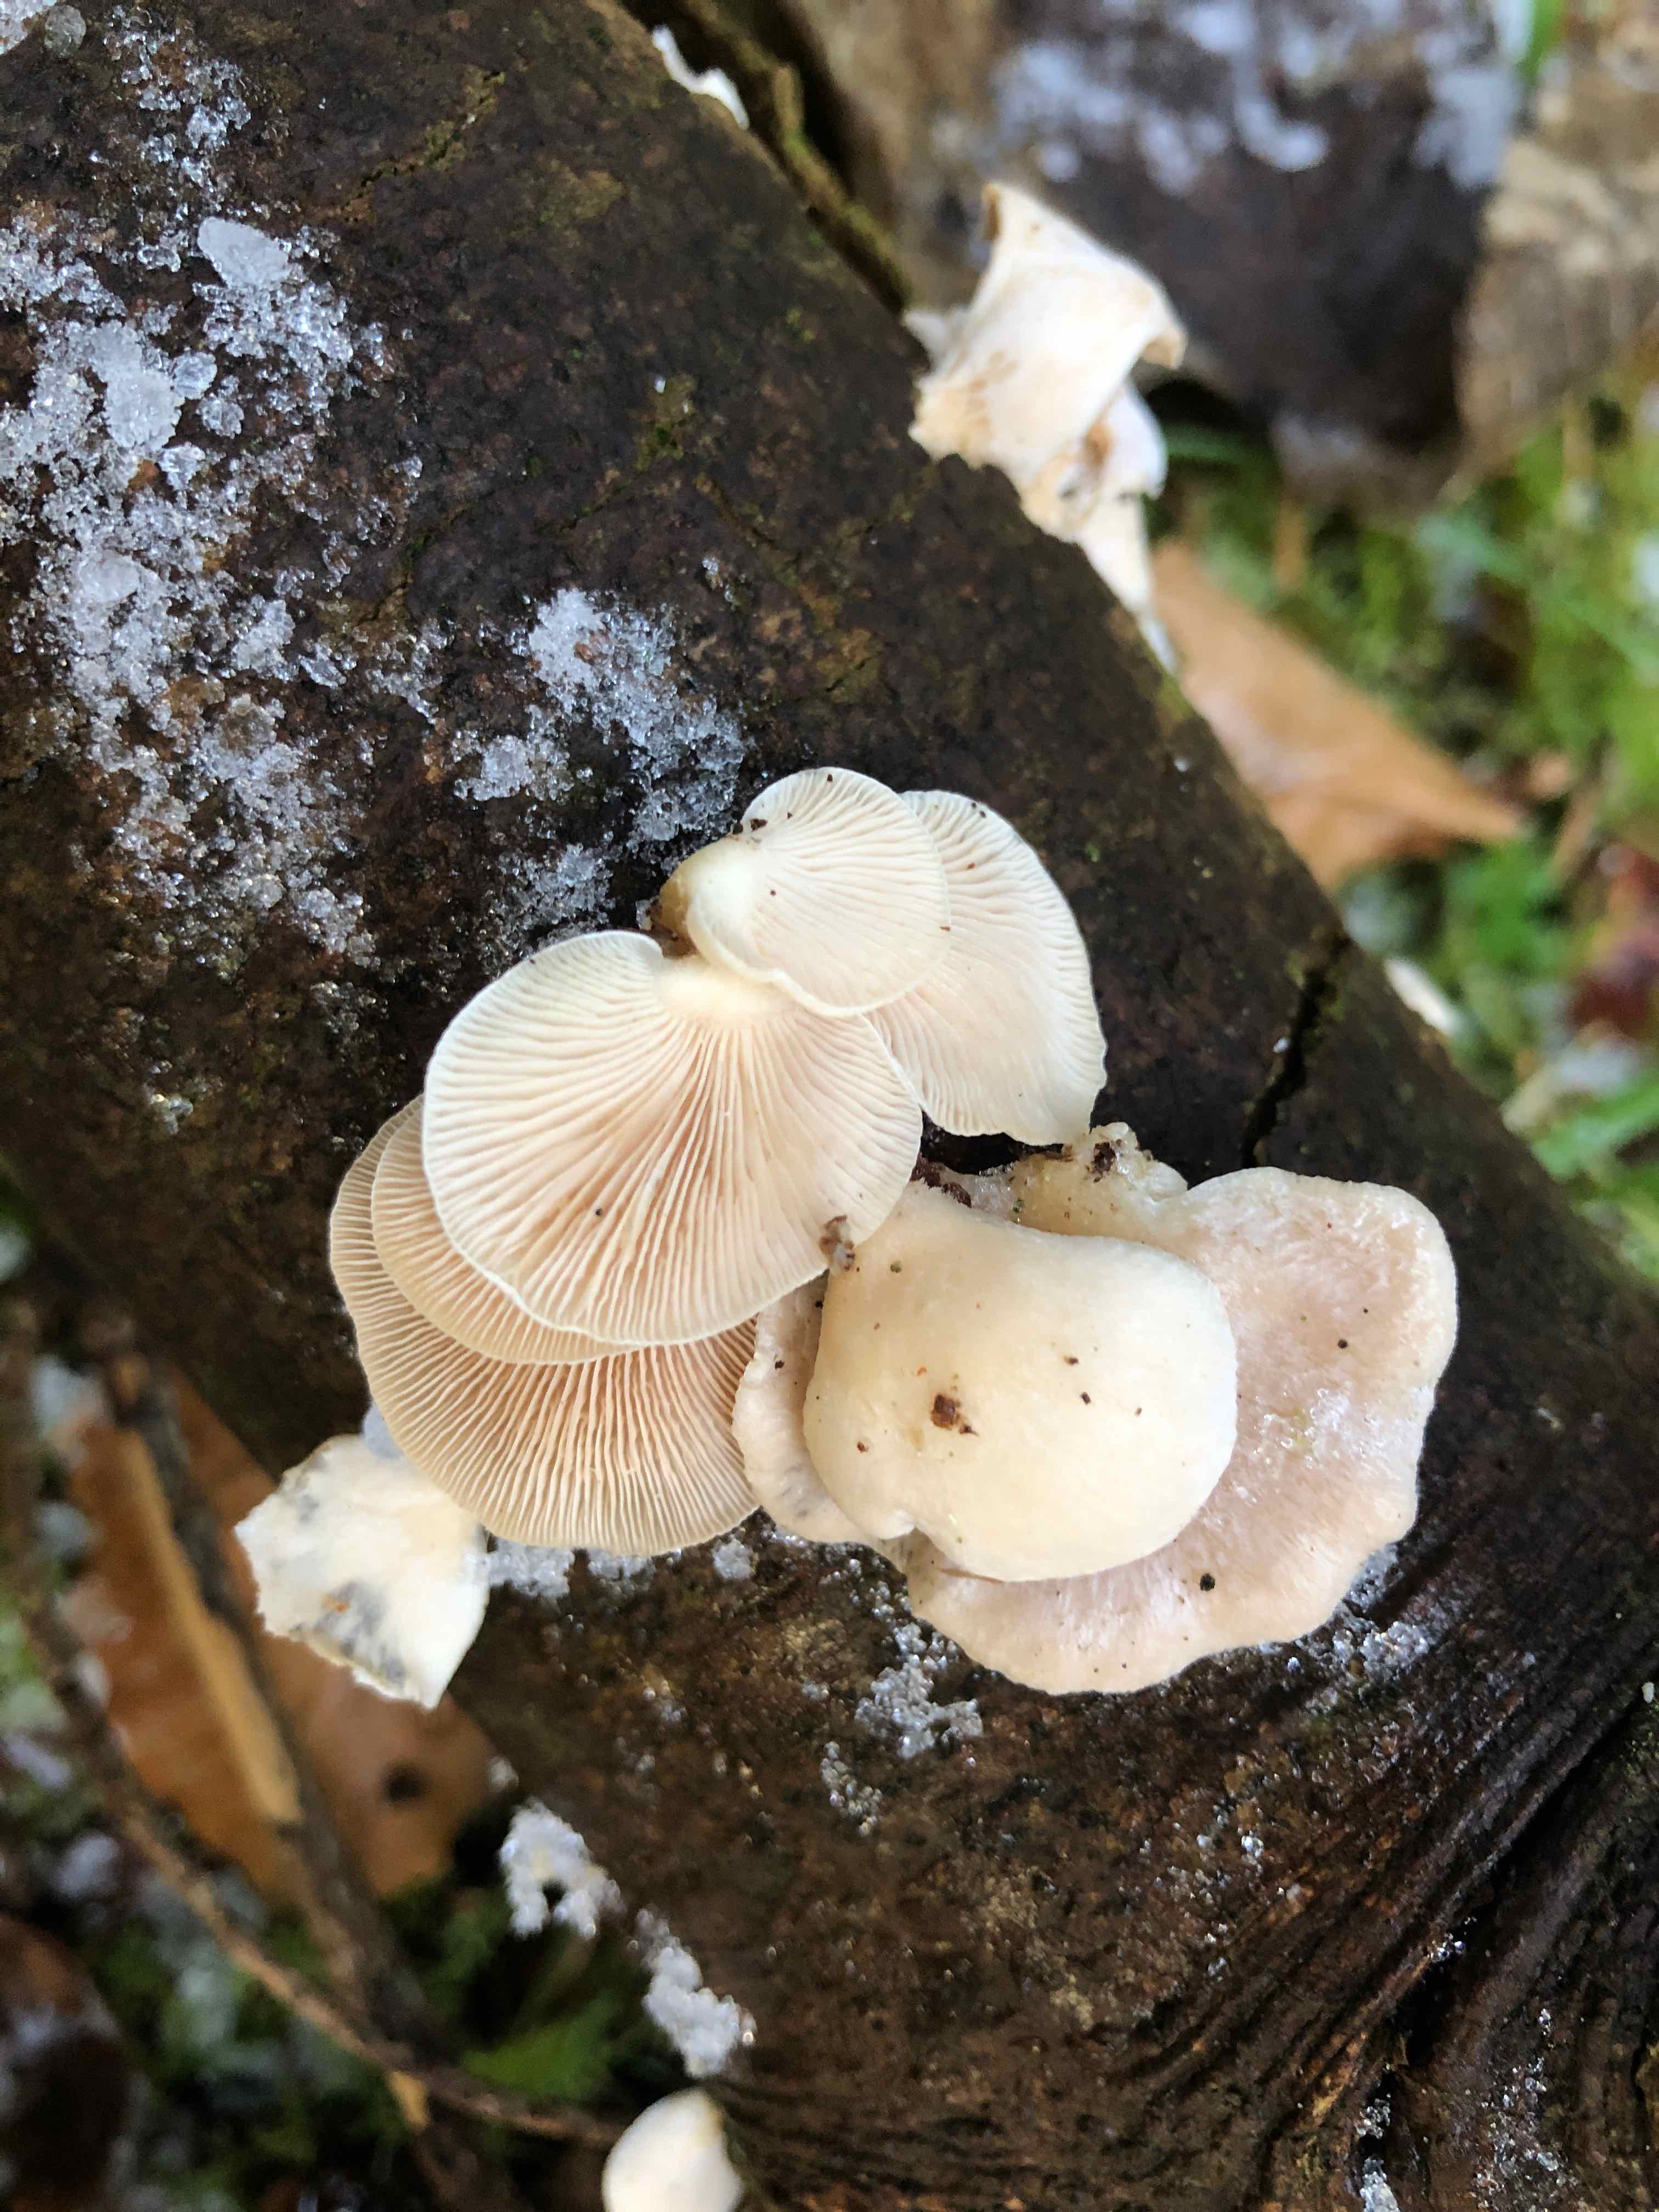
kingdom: Fungi
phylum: Basidiomycota
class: Agaricomycetes
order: Agaricales
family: Mycenaceae
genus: Panellus
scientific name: Panellus mitis
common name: mild epaulethat
